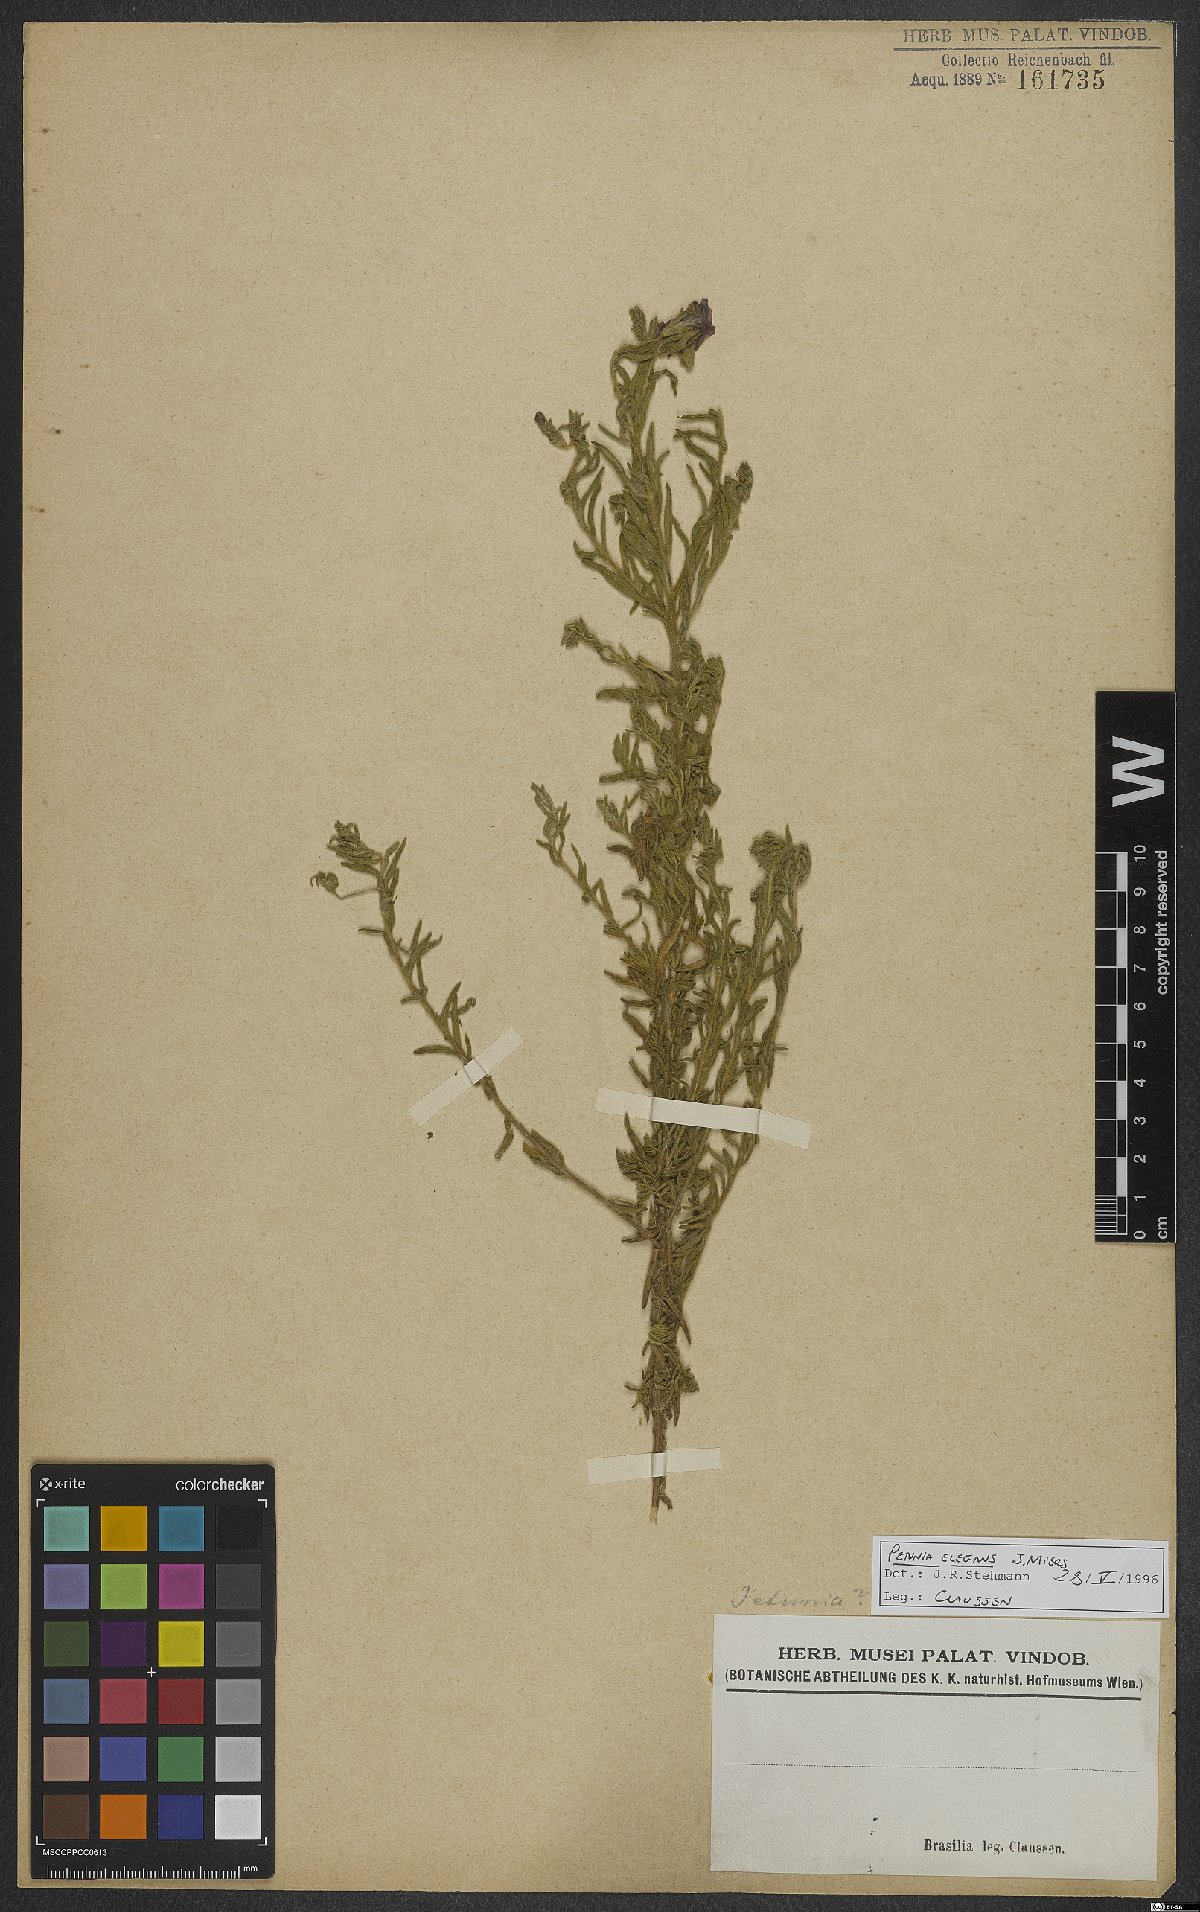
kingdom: Plantae
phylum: Tracheophyta
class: Magnoliopsida
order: Solanales
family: Solanaceae
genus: Calibrachoa
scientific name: Calibrachoa elegans
